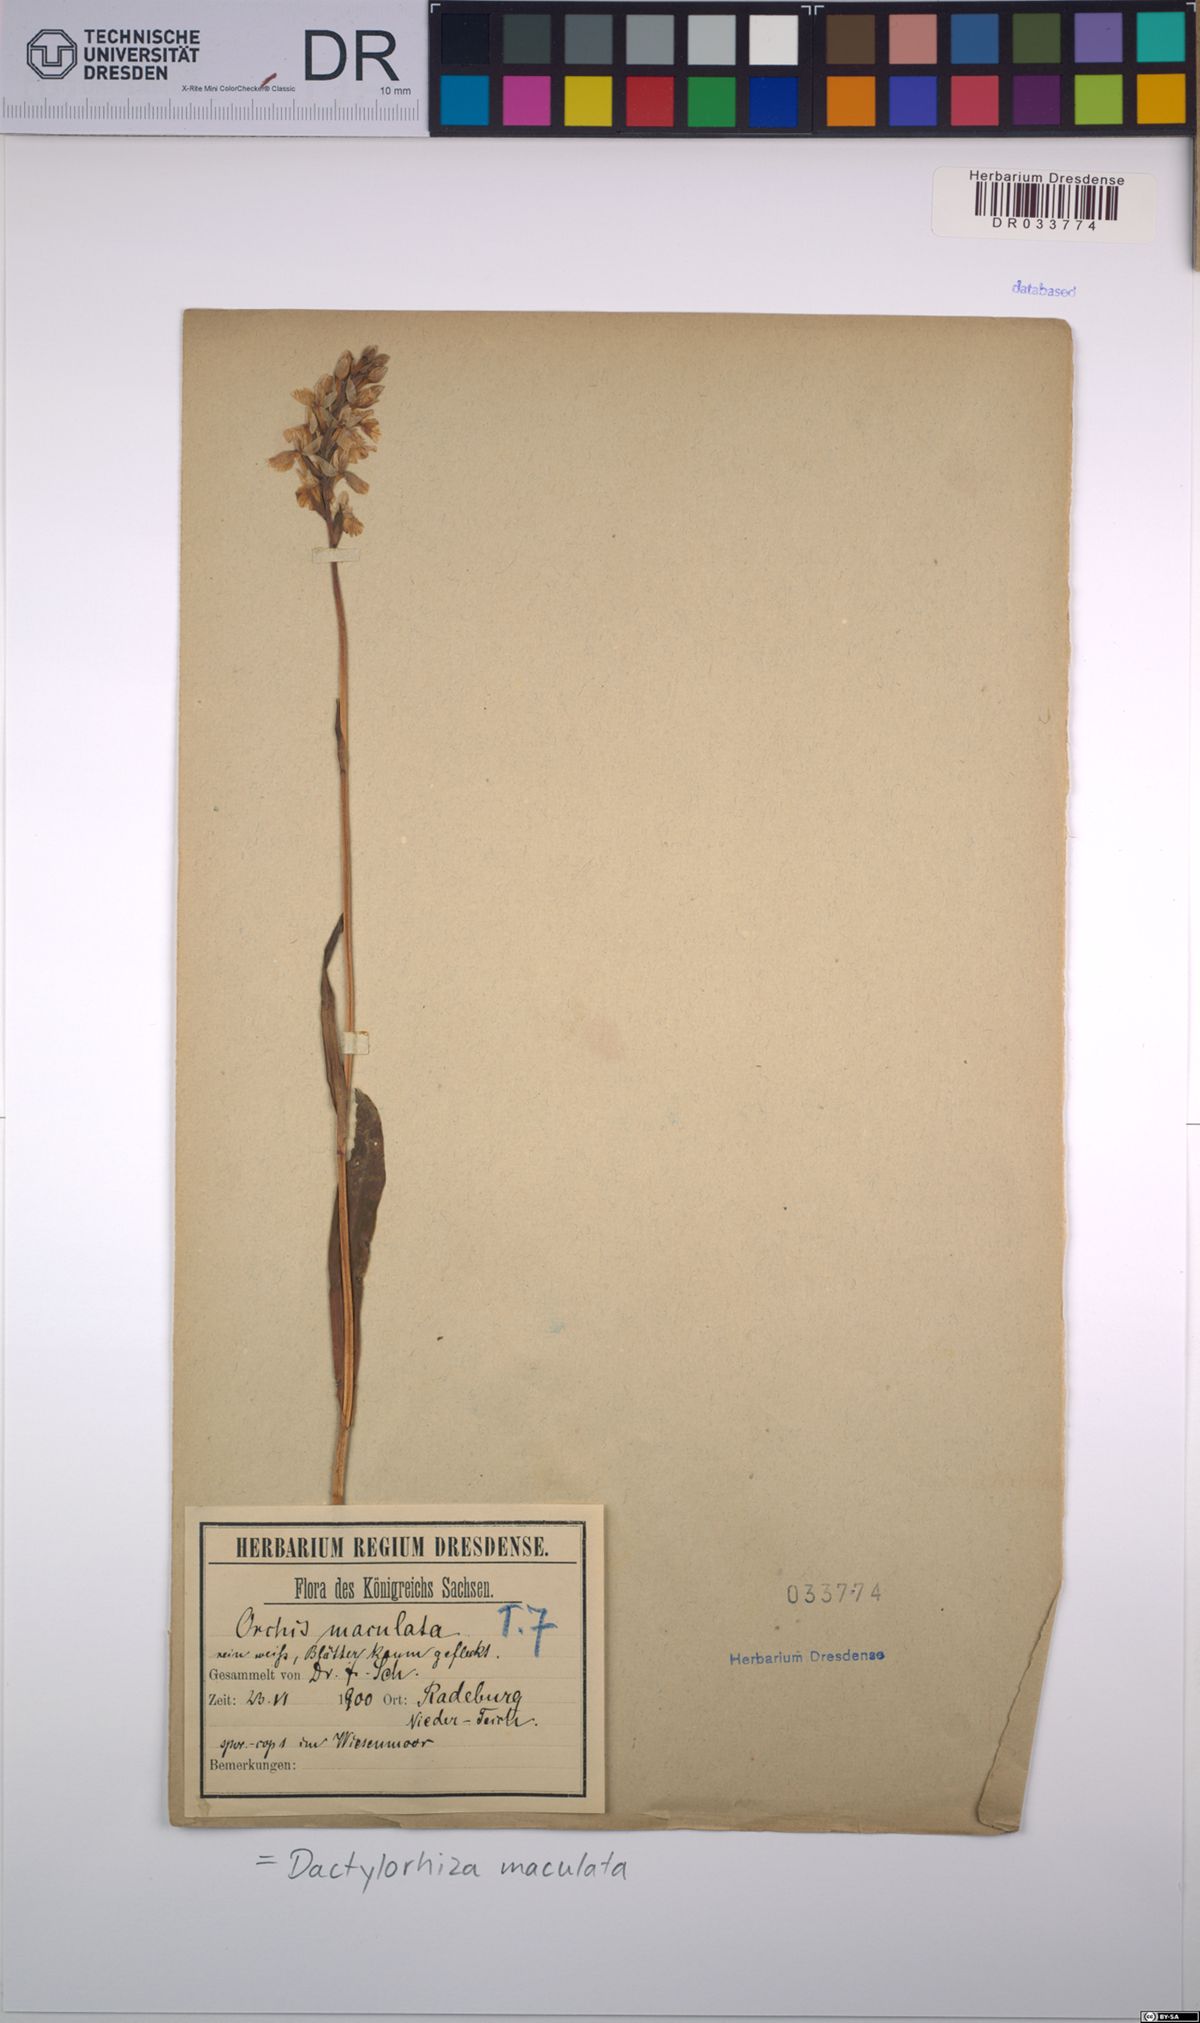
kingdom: Plantae
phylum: Tracheophyta
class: Liliopsida
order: Asparagales
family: Orchidaceae
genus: Dactylorhiza
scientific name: Dactylorhiza maculata
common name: Heath spotted-orchid
